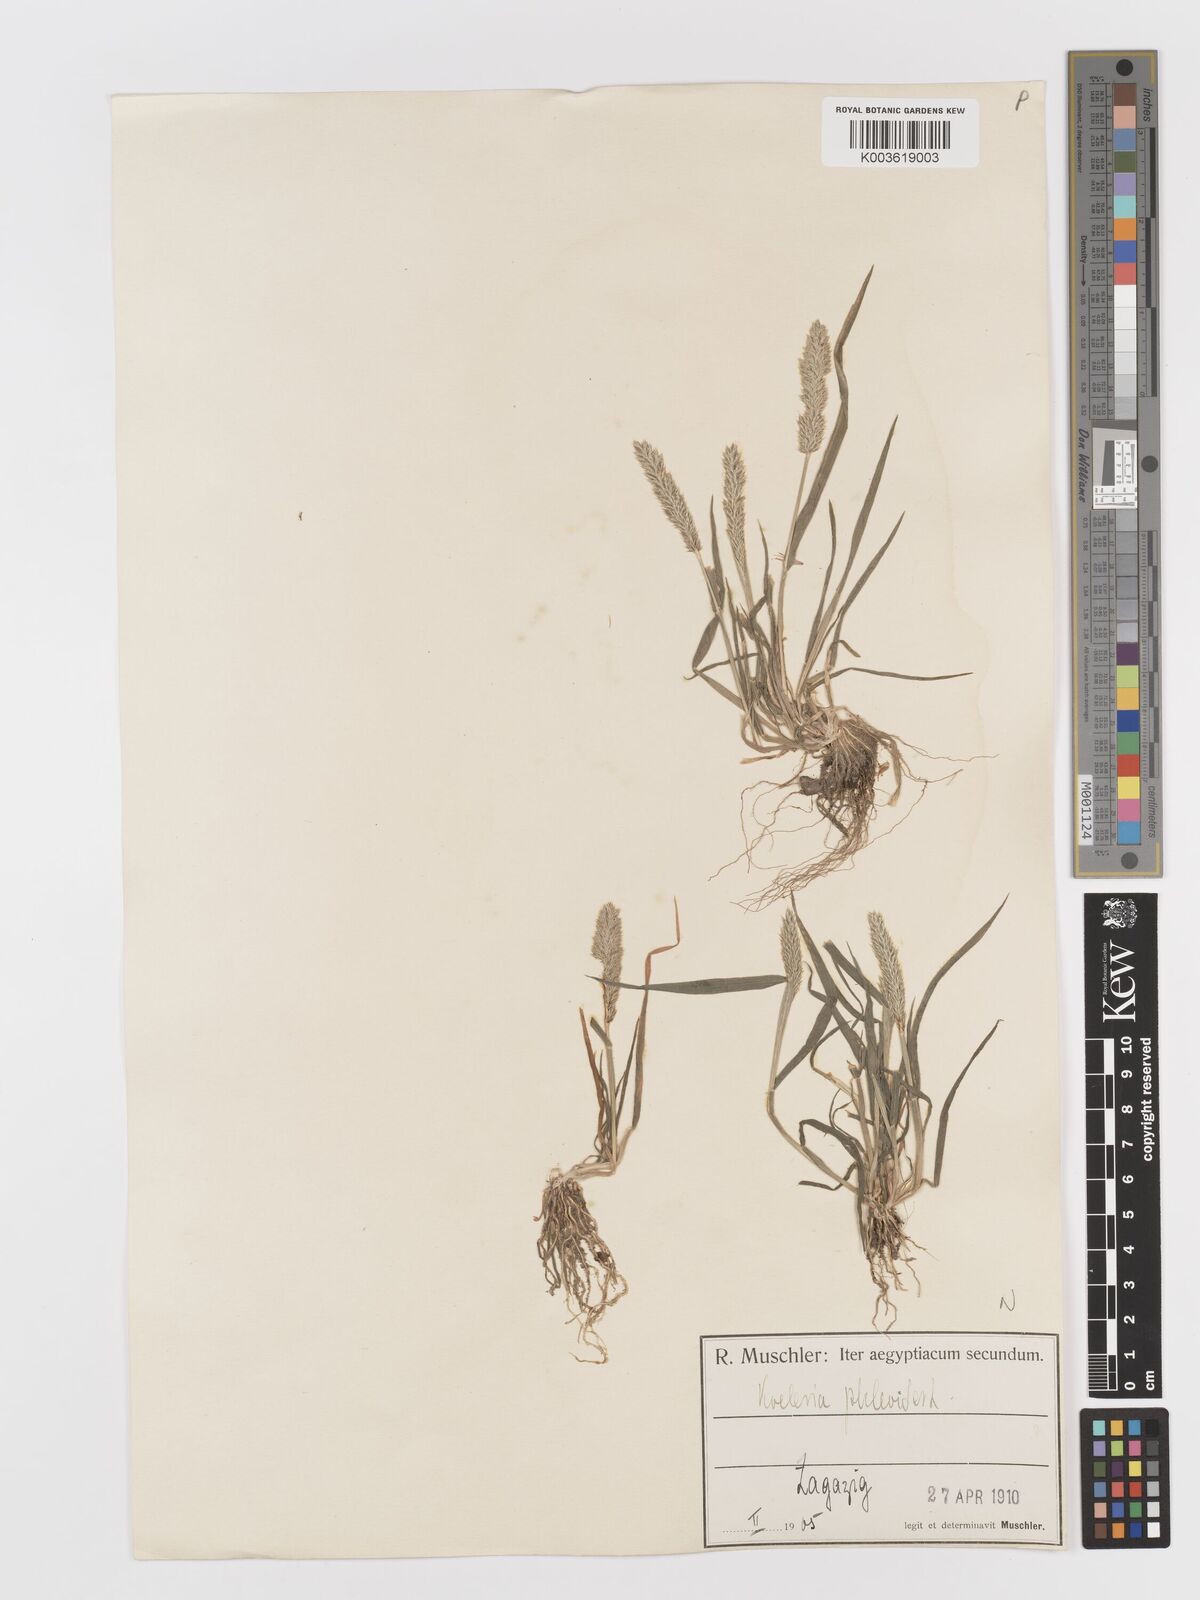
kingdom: Plantae
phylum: Tracheophyta
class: Liliopsida
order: Poales
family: Poaceae
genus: Rostraria
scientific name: Rostraria cristata
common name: Mediterranean hair-grass
